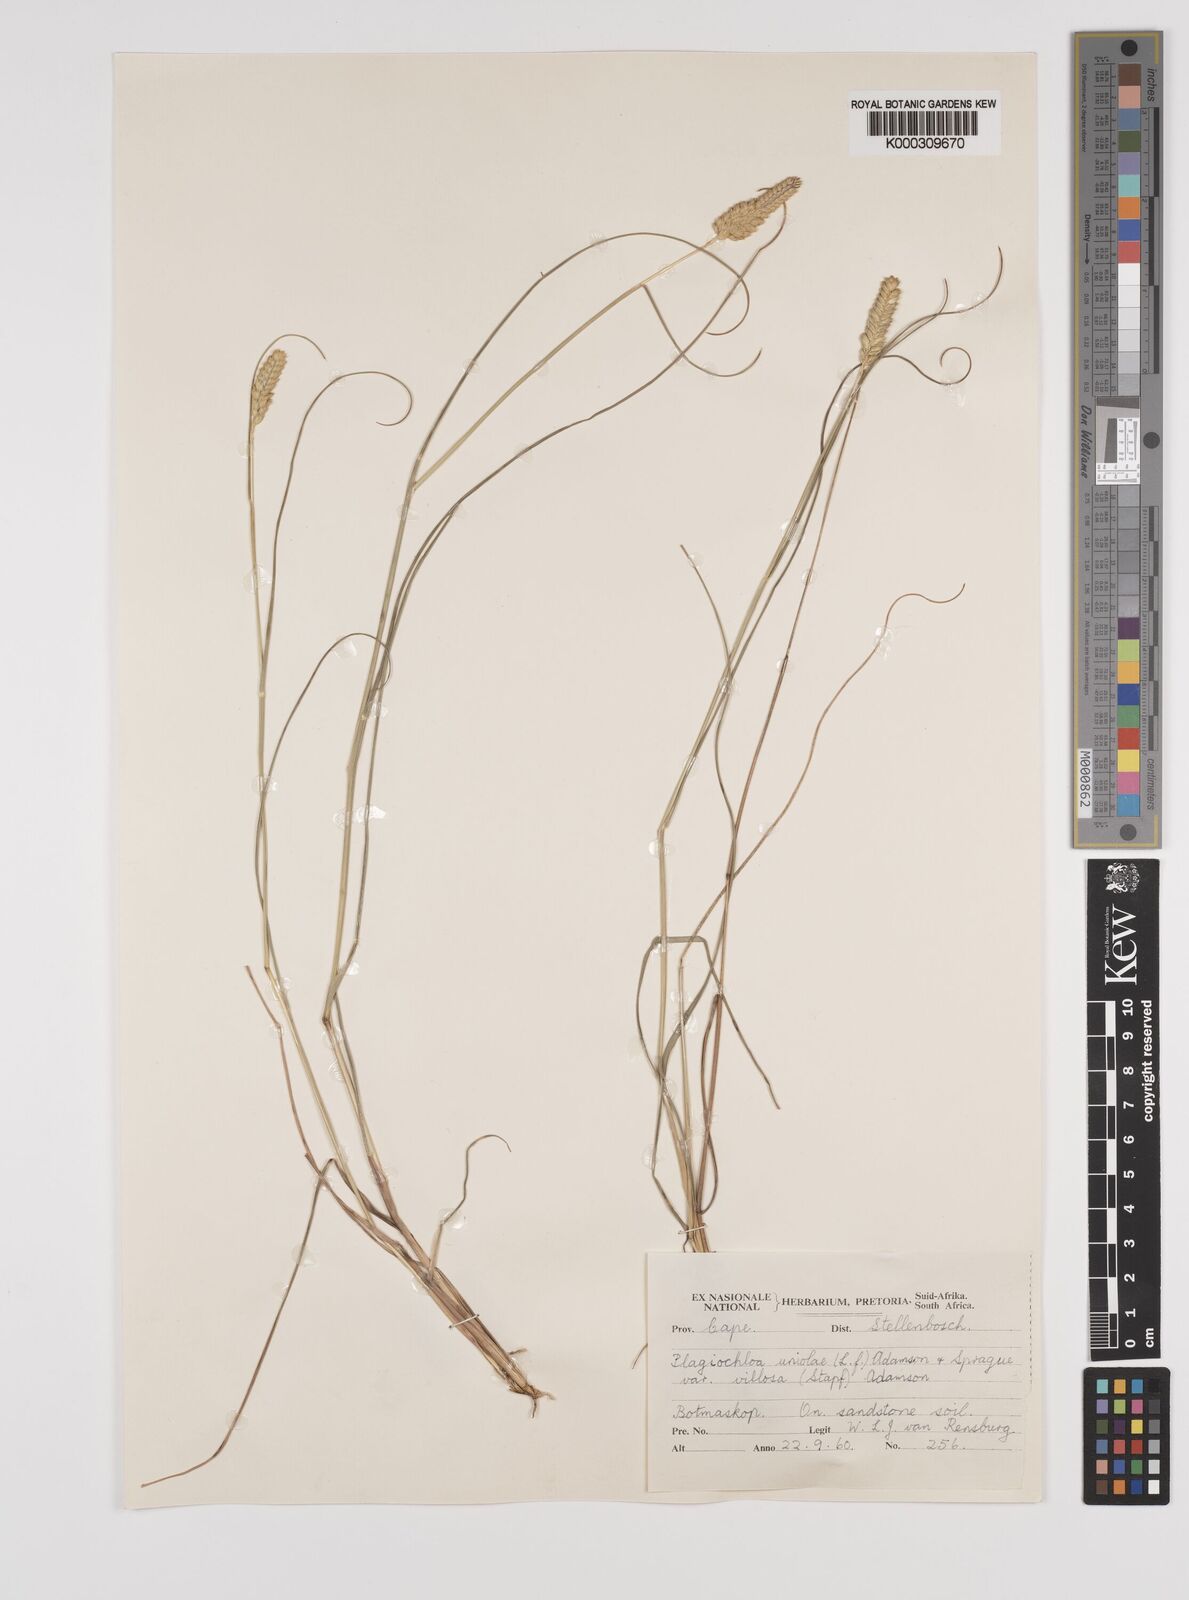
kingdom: Plantae
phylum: Tracheophyta
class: Liliopsida
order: Poales
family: Poaceae
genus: Tribolium
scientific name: Tribolium uniolae
